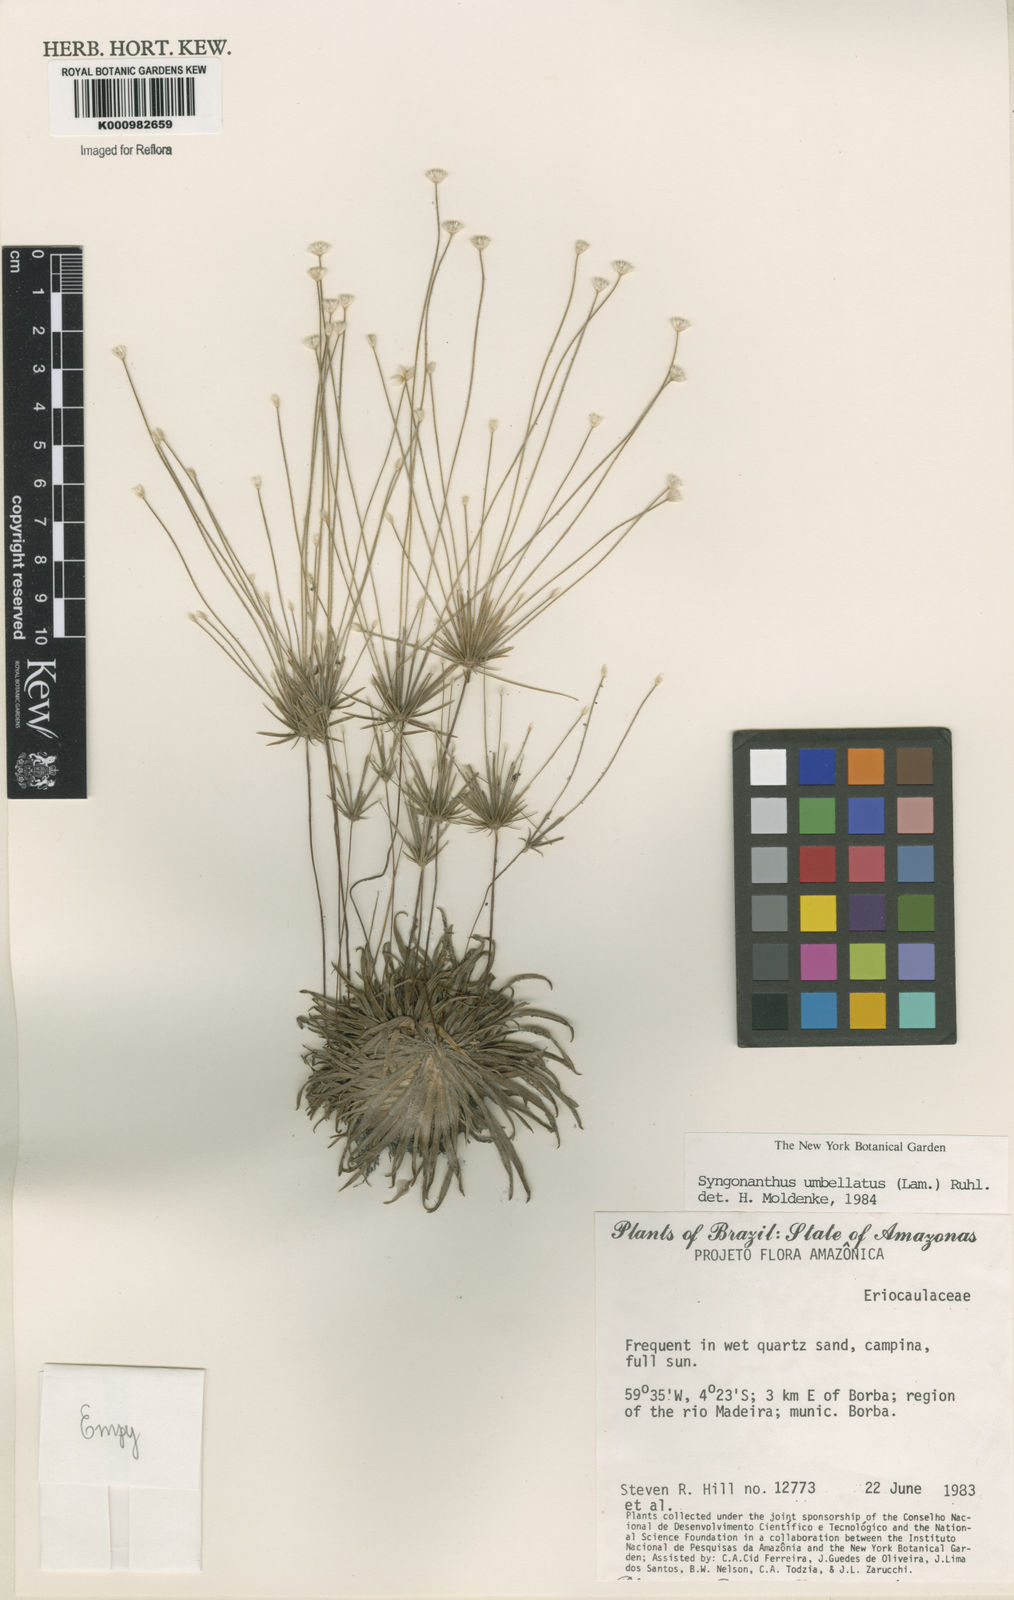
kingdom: Plantae
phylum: Tracheophyta
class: Liliopsida
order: Poales
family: Eriocaulaceae
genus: Syngonanthus
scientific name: Syngonanthus umbellatus
